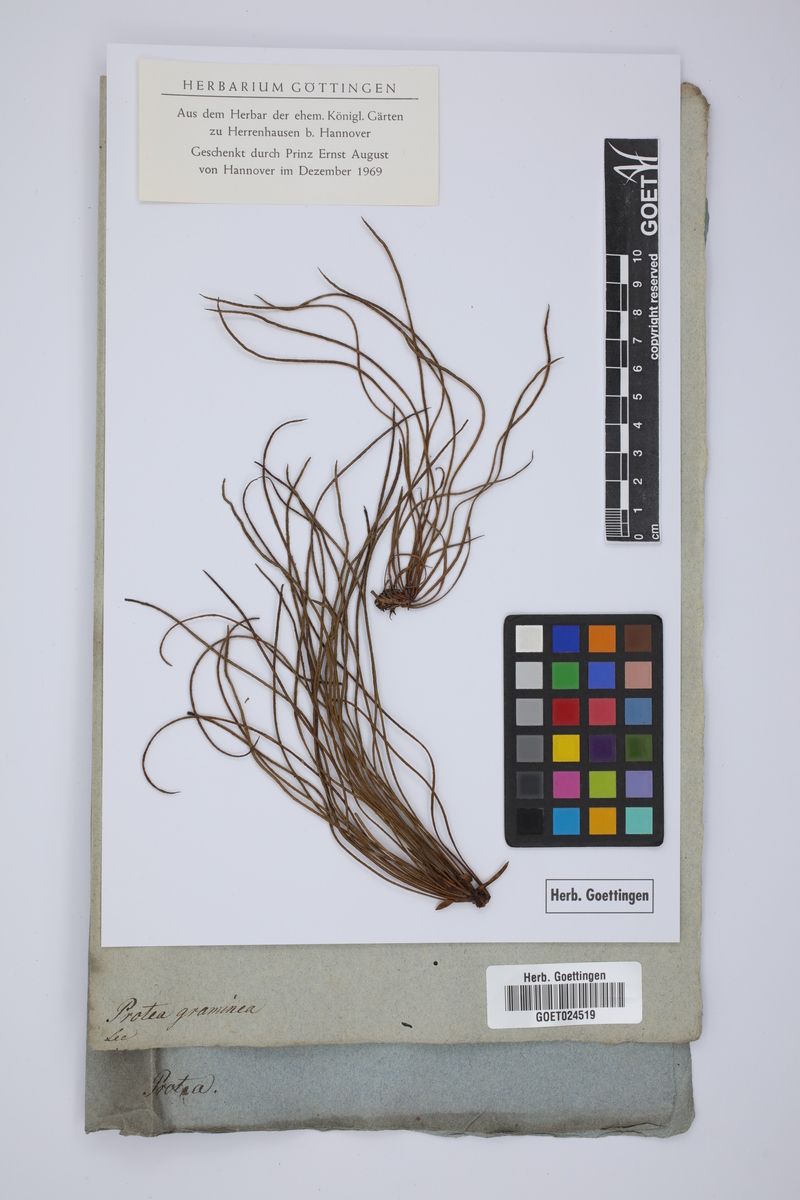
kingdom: Plantae
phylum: Tracheophyta
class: Magnoliopsida
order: Proteales
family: Proteaceae
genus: Protea
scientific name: Protea graminea
